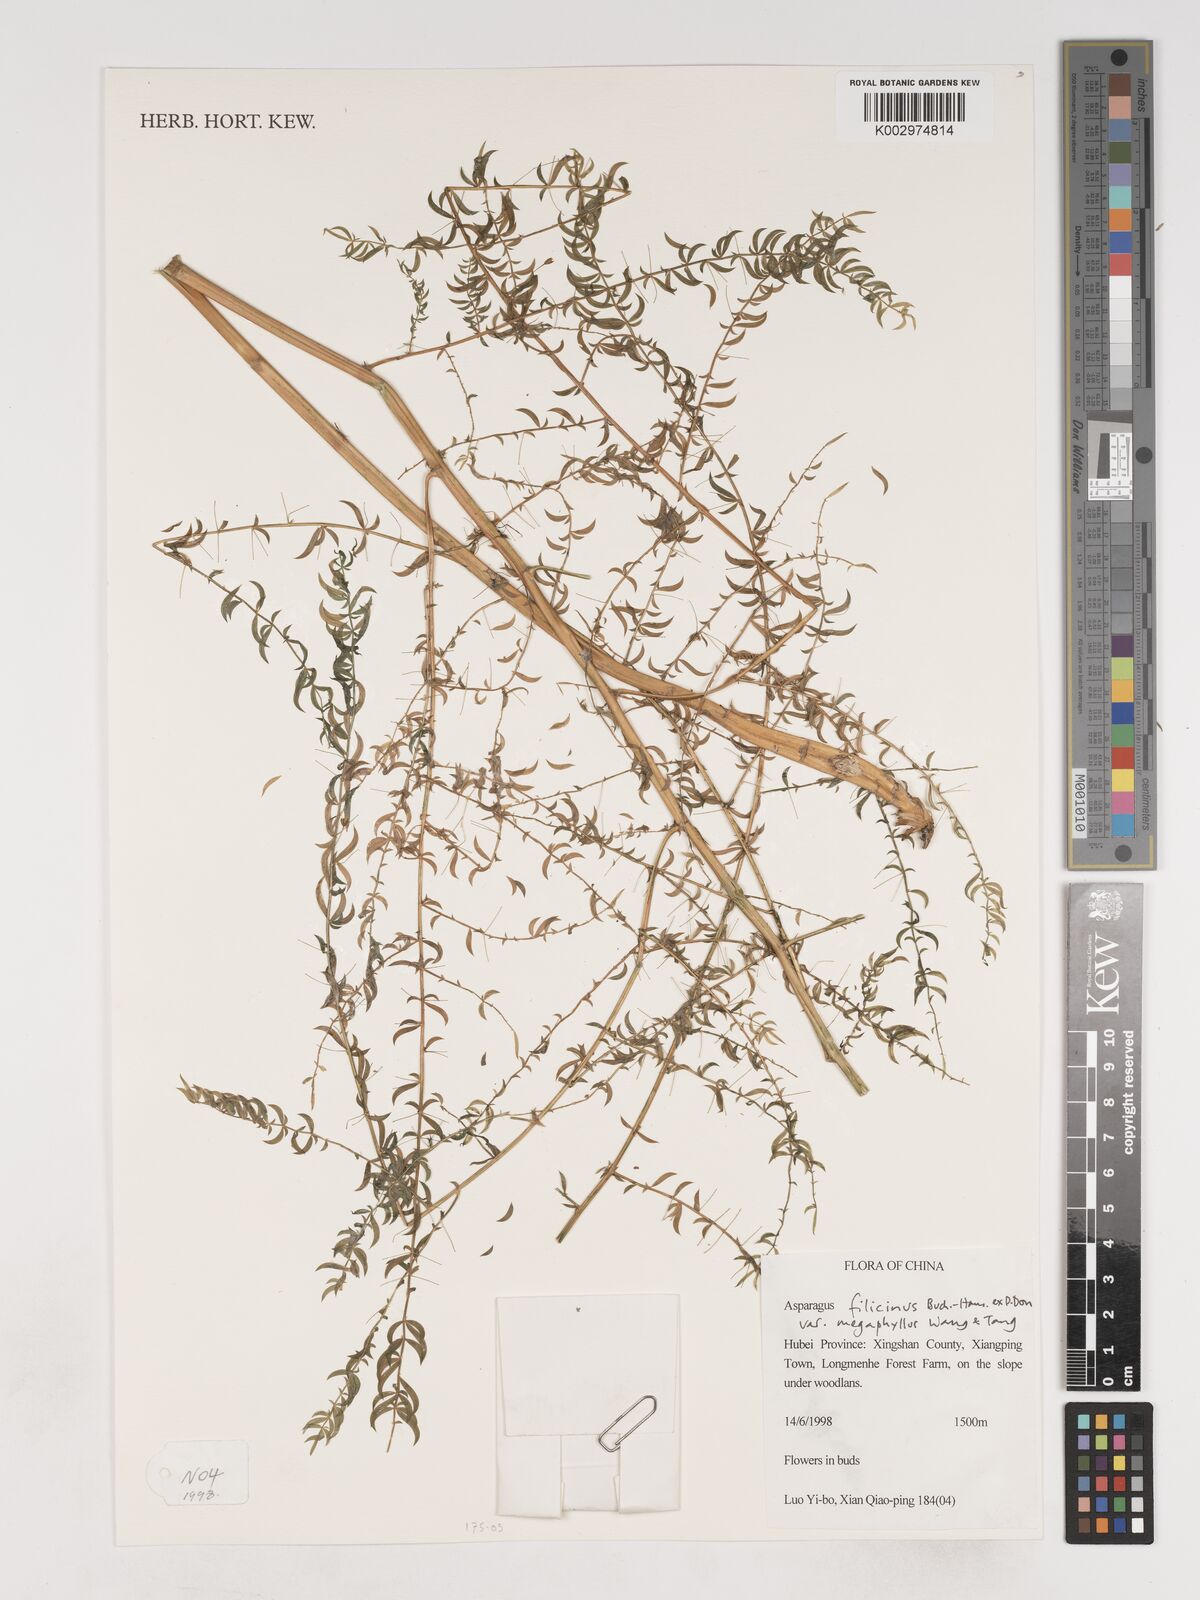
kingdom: Plantae
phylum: Tracheophyta
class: Liliopsida
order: Asparagales
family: Asparagaceae
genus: Asparagus
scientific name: Asparagus filicinus
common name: Fern asparagus
